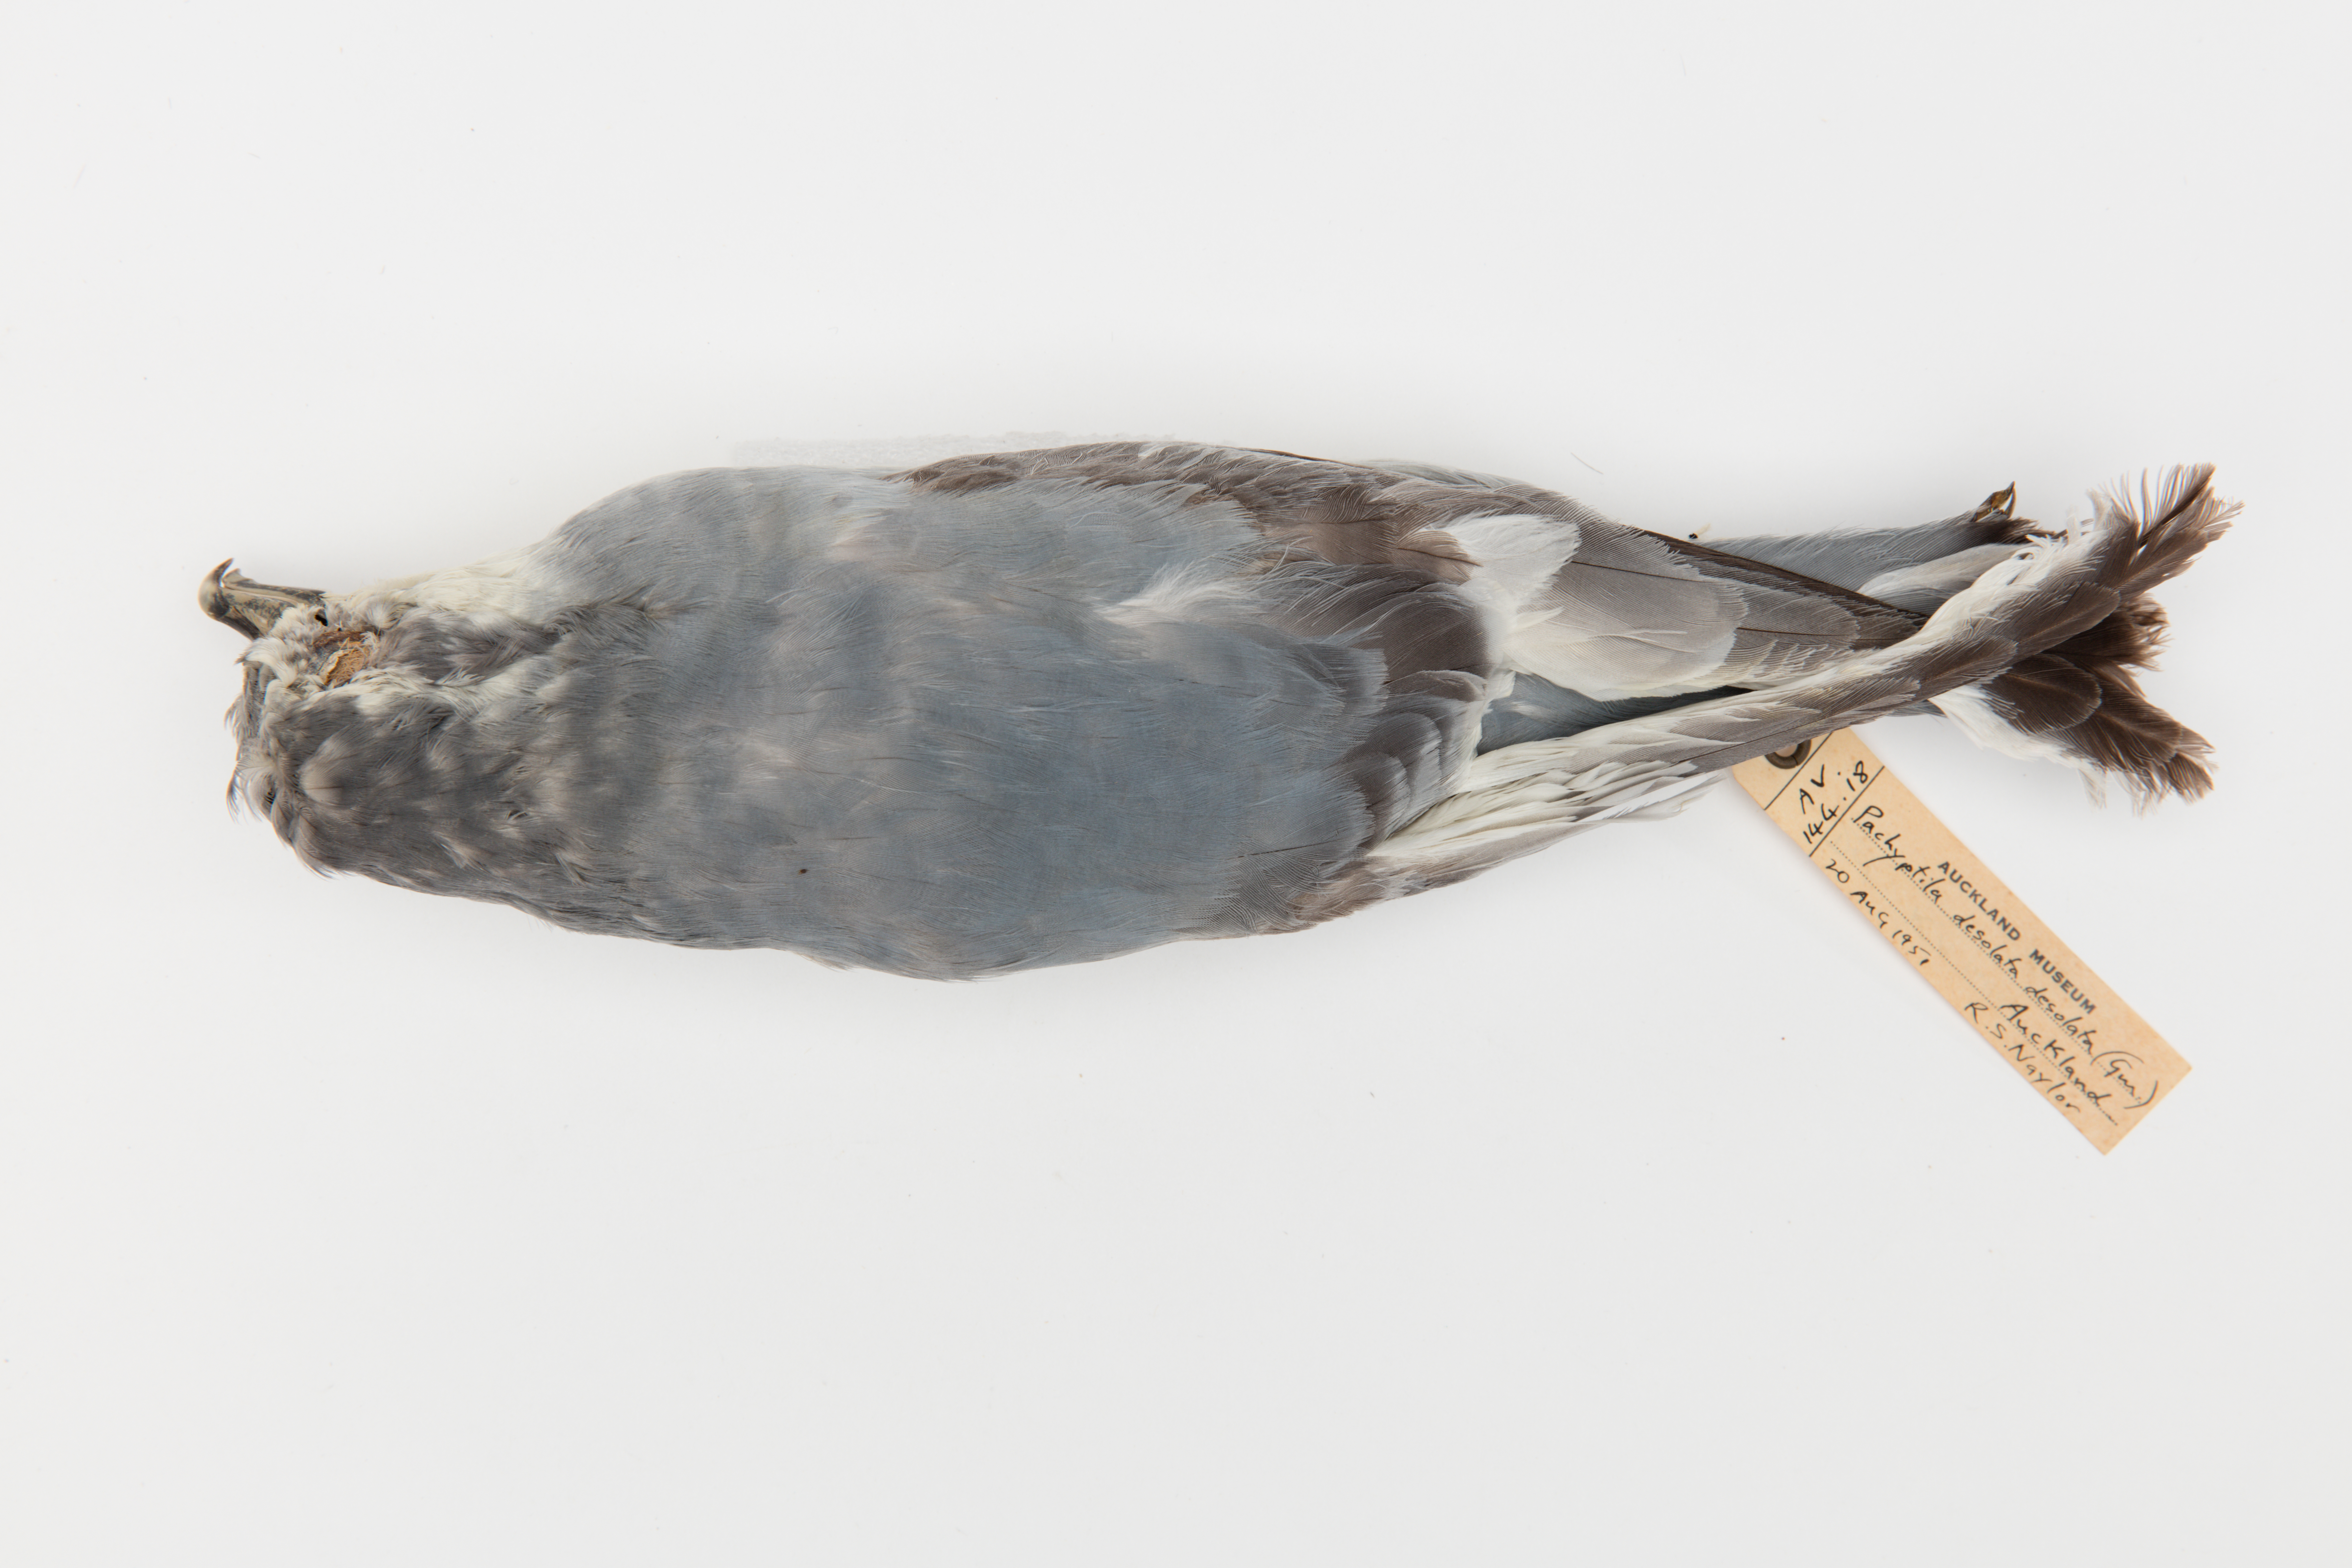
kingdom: Animalia
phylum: Chordata
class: Aves
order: Procellariiformes
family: Procellariidae
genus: Pachyptila
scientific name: Pachyptila desolata
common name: Antarctic prion
